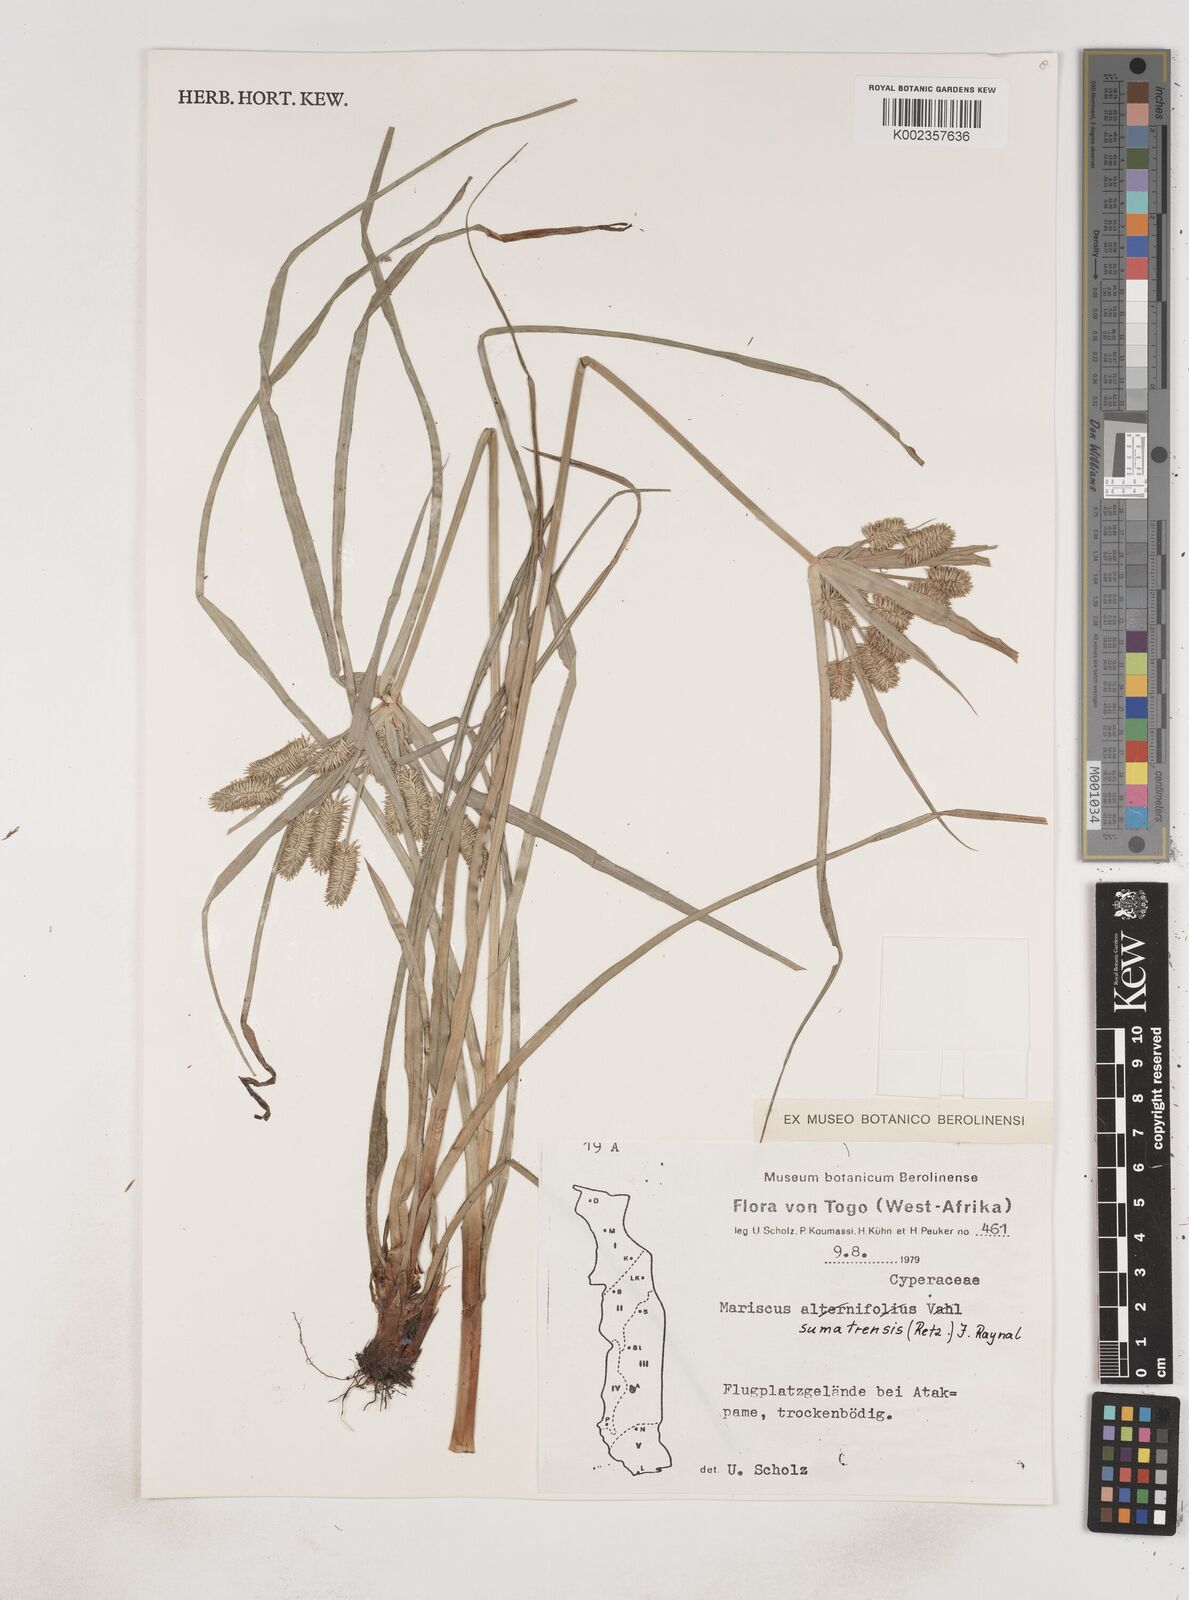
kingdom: Plantae
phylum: Tracheophyta
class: Liliopsida
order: Poales
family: Cyperaceae
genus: Cyperus
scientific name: Cyperus cyperoides
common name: Pacific island flat sedge
